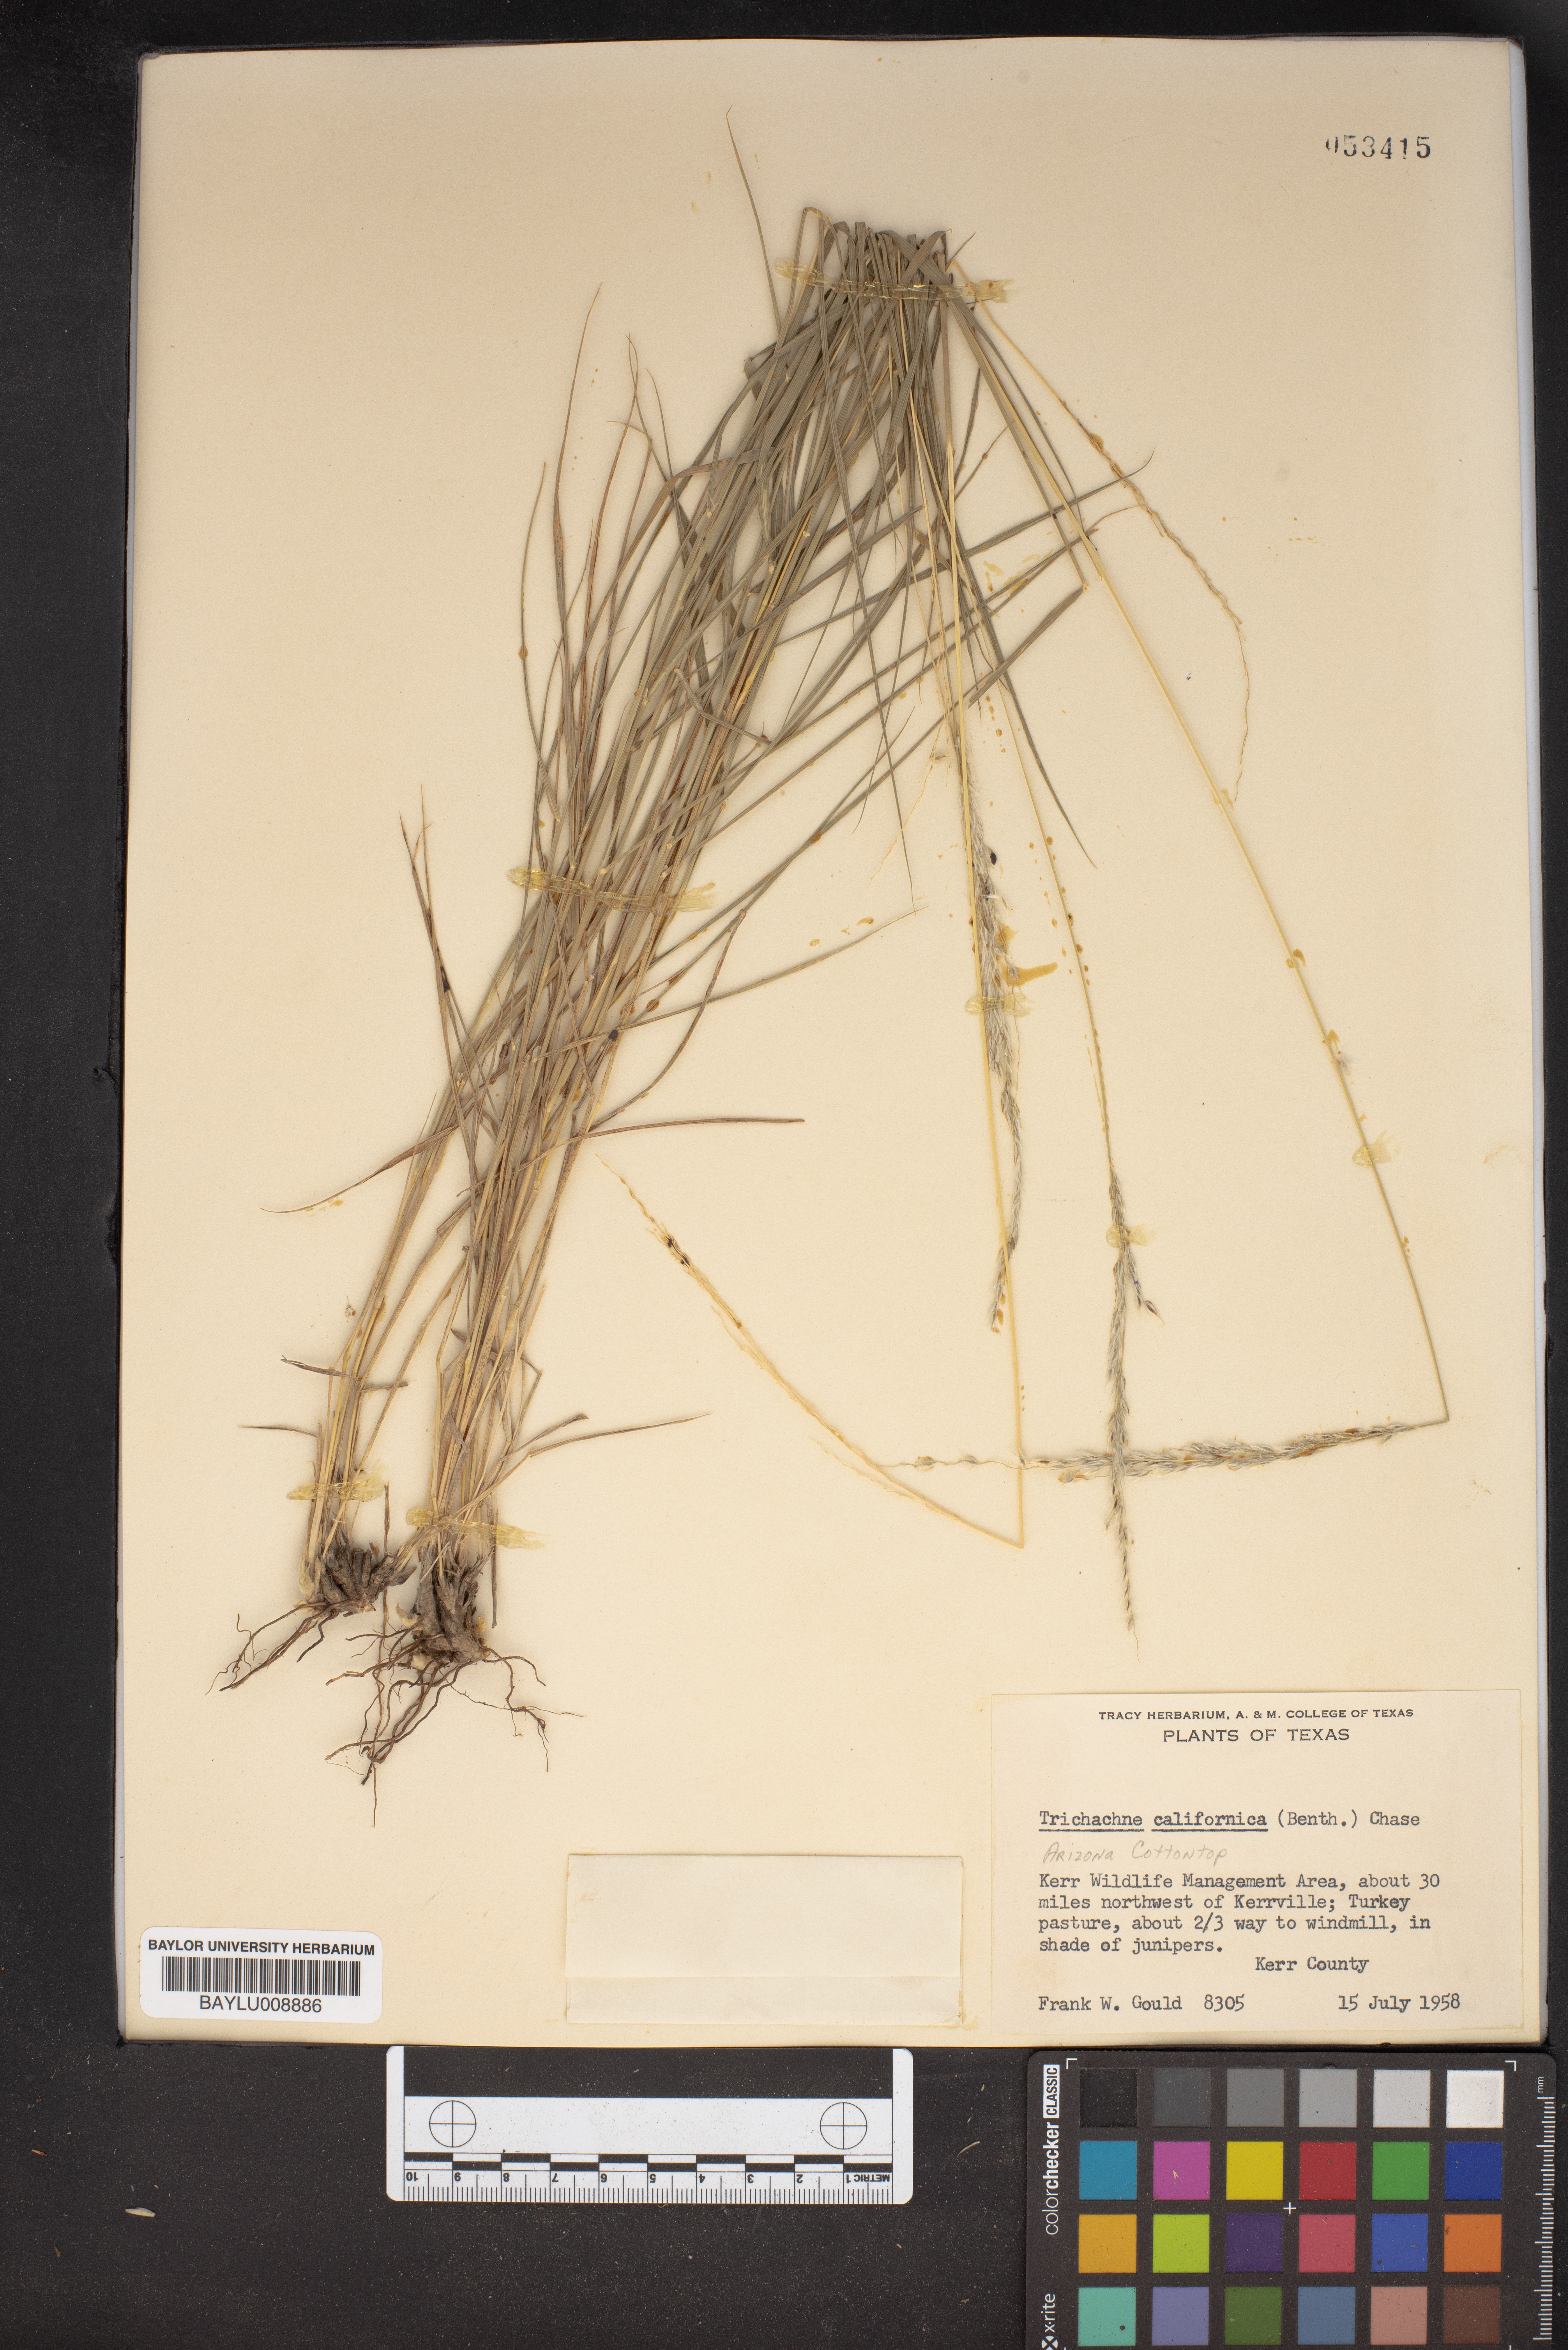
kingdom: Plantae
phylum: Tracheophyta
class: Liliopsida
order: Poales
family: Poaceae
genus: Digitaria
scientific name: Digitaria californica
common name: Arizona cottontop
